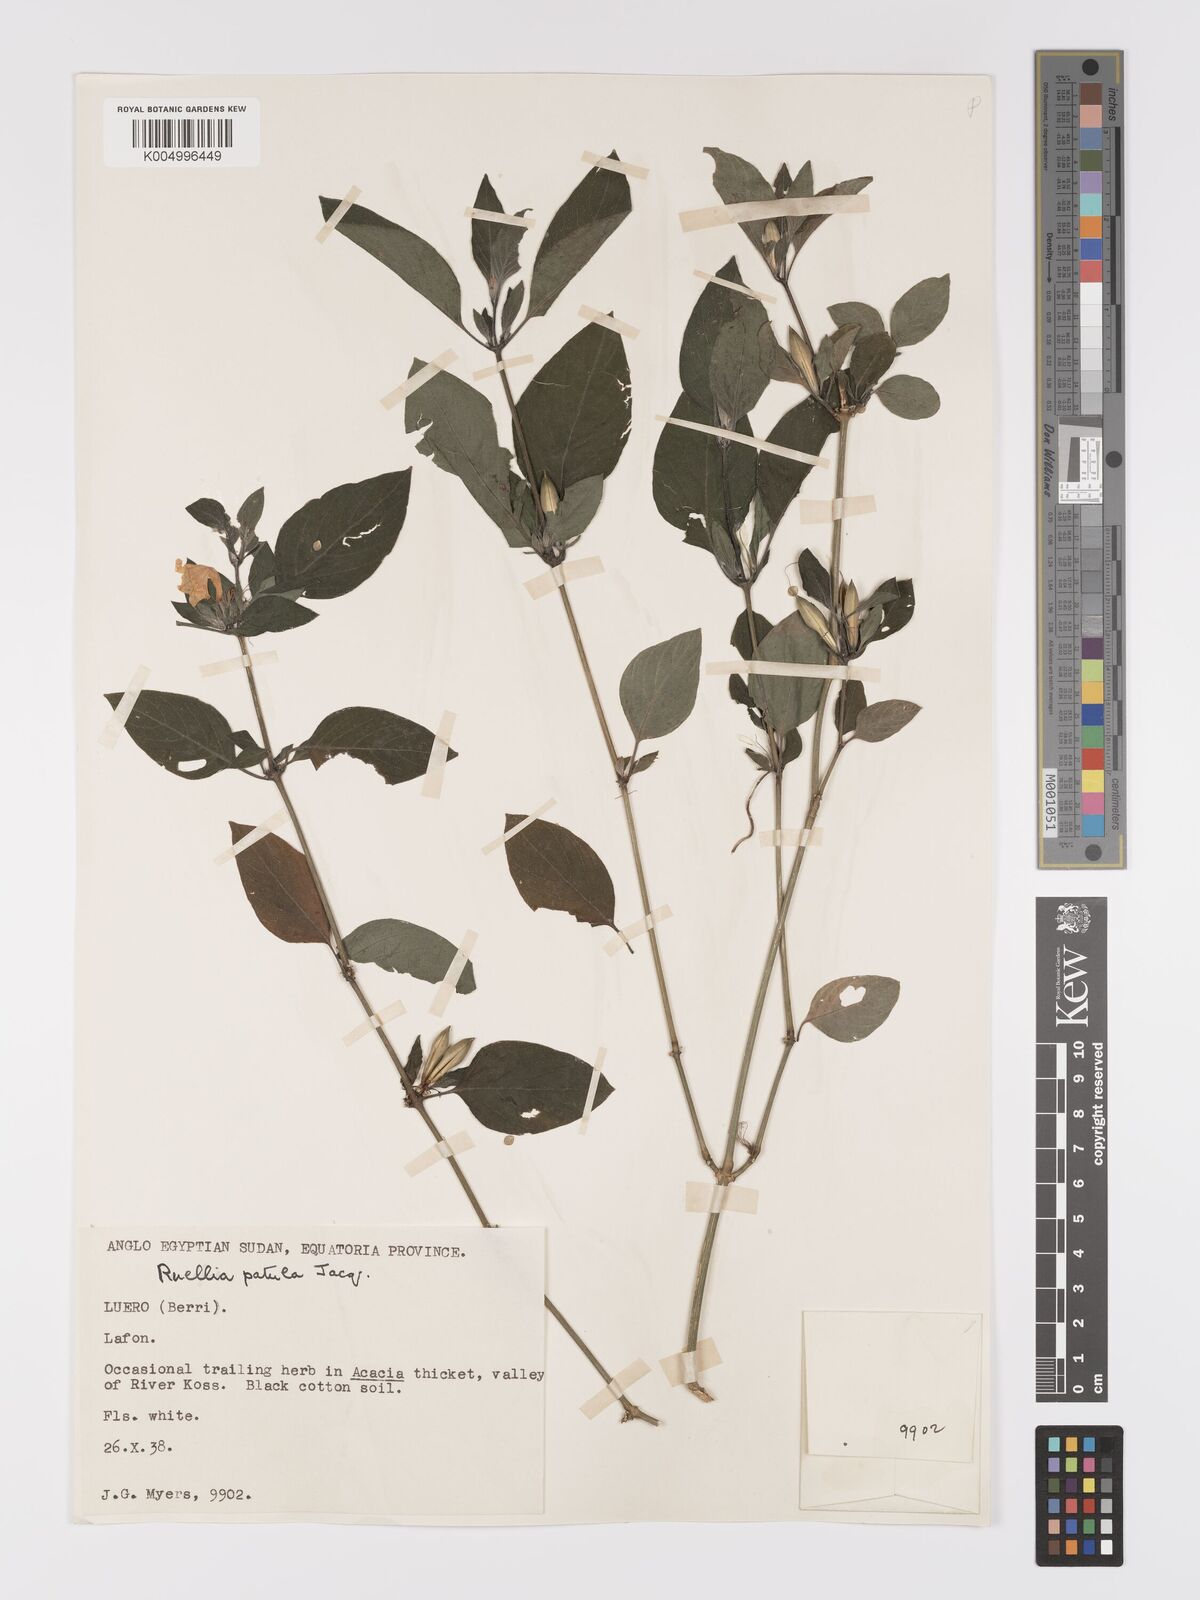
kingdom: Plantae
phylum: Tracheophyta
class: Magnoliopsida
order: Lamiales
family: Acanthaceae
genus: Ruellia
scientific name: Ruellia
